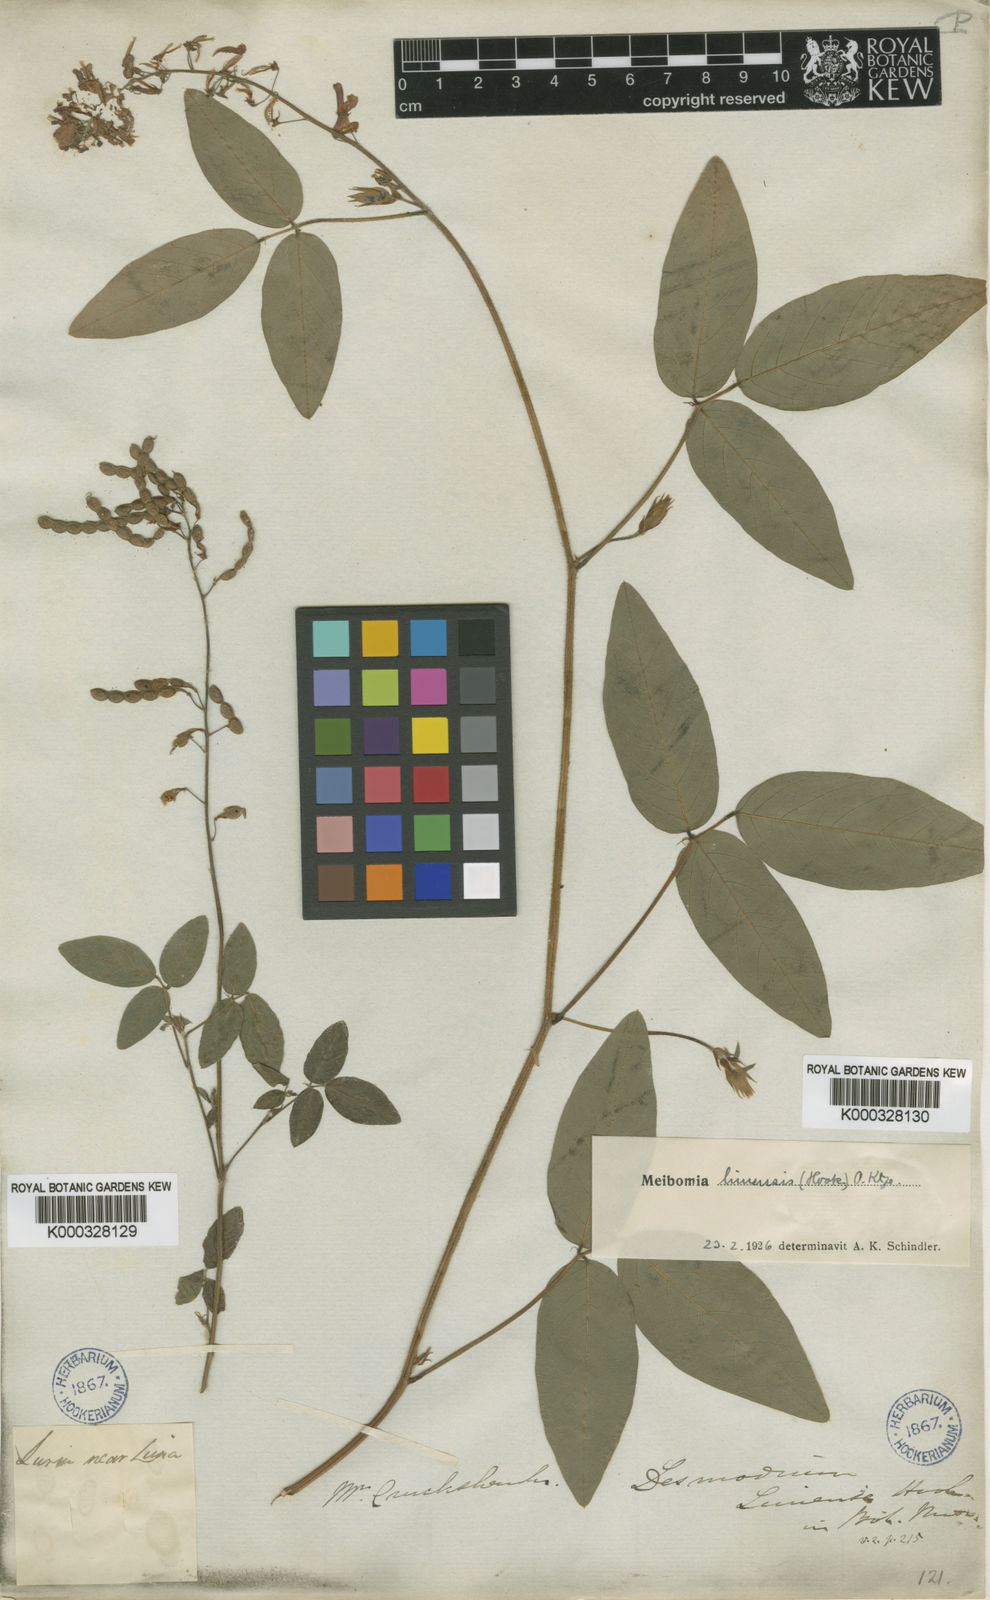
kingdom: Plantae
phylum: Tracheophyta
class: Magnoliopsida
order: Fabales
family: Fabaceae
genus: Desmodium
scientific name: Desmodium limense
